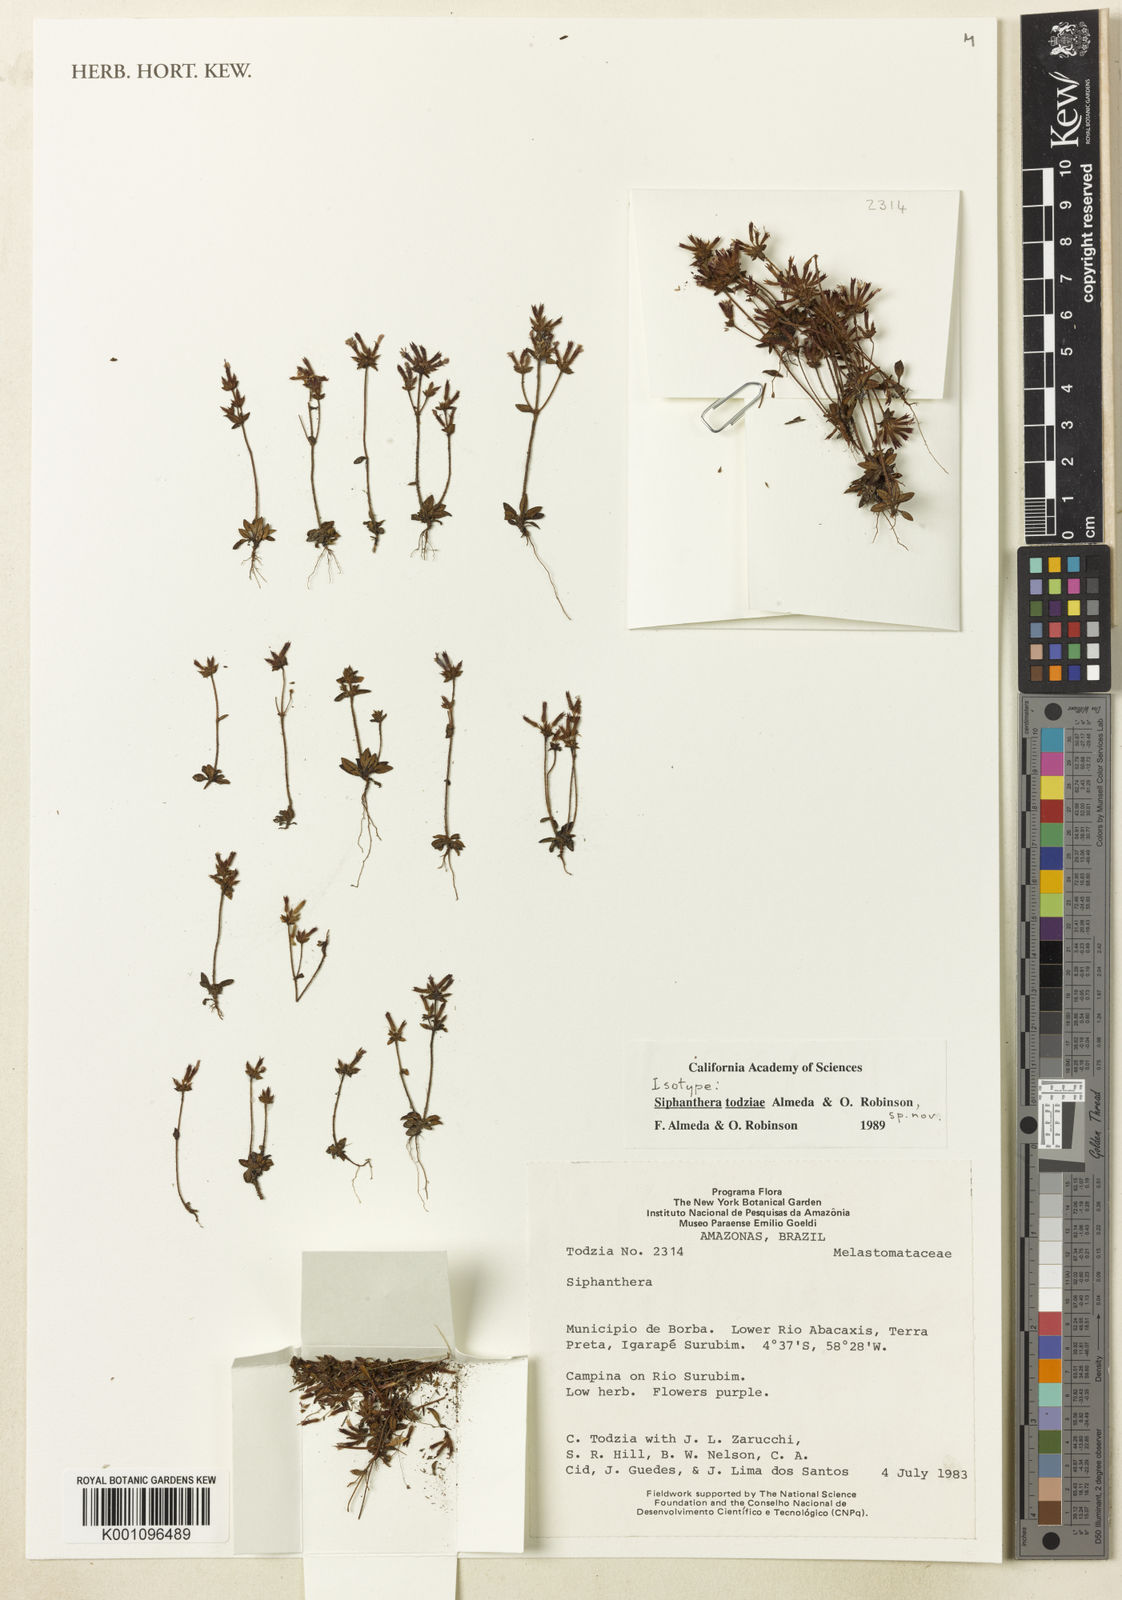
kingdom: Plantae
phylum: Tracheophyta
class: Magnoliopsida
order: Myrtales
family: Melastomataceae
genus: Siphanthera
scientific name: Siphanthera todziae
